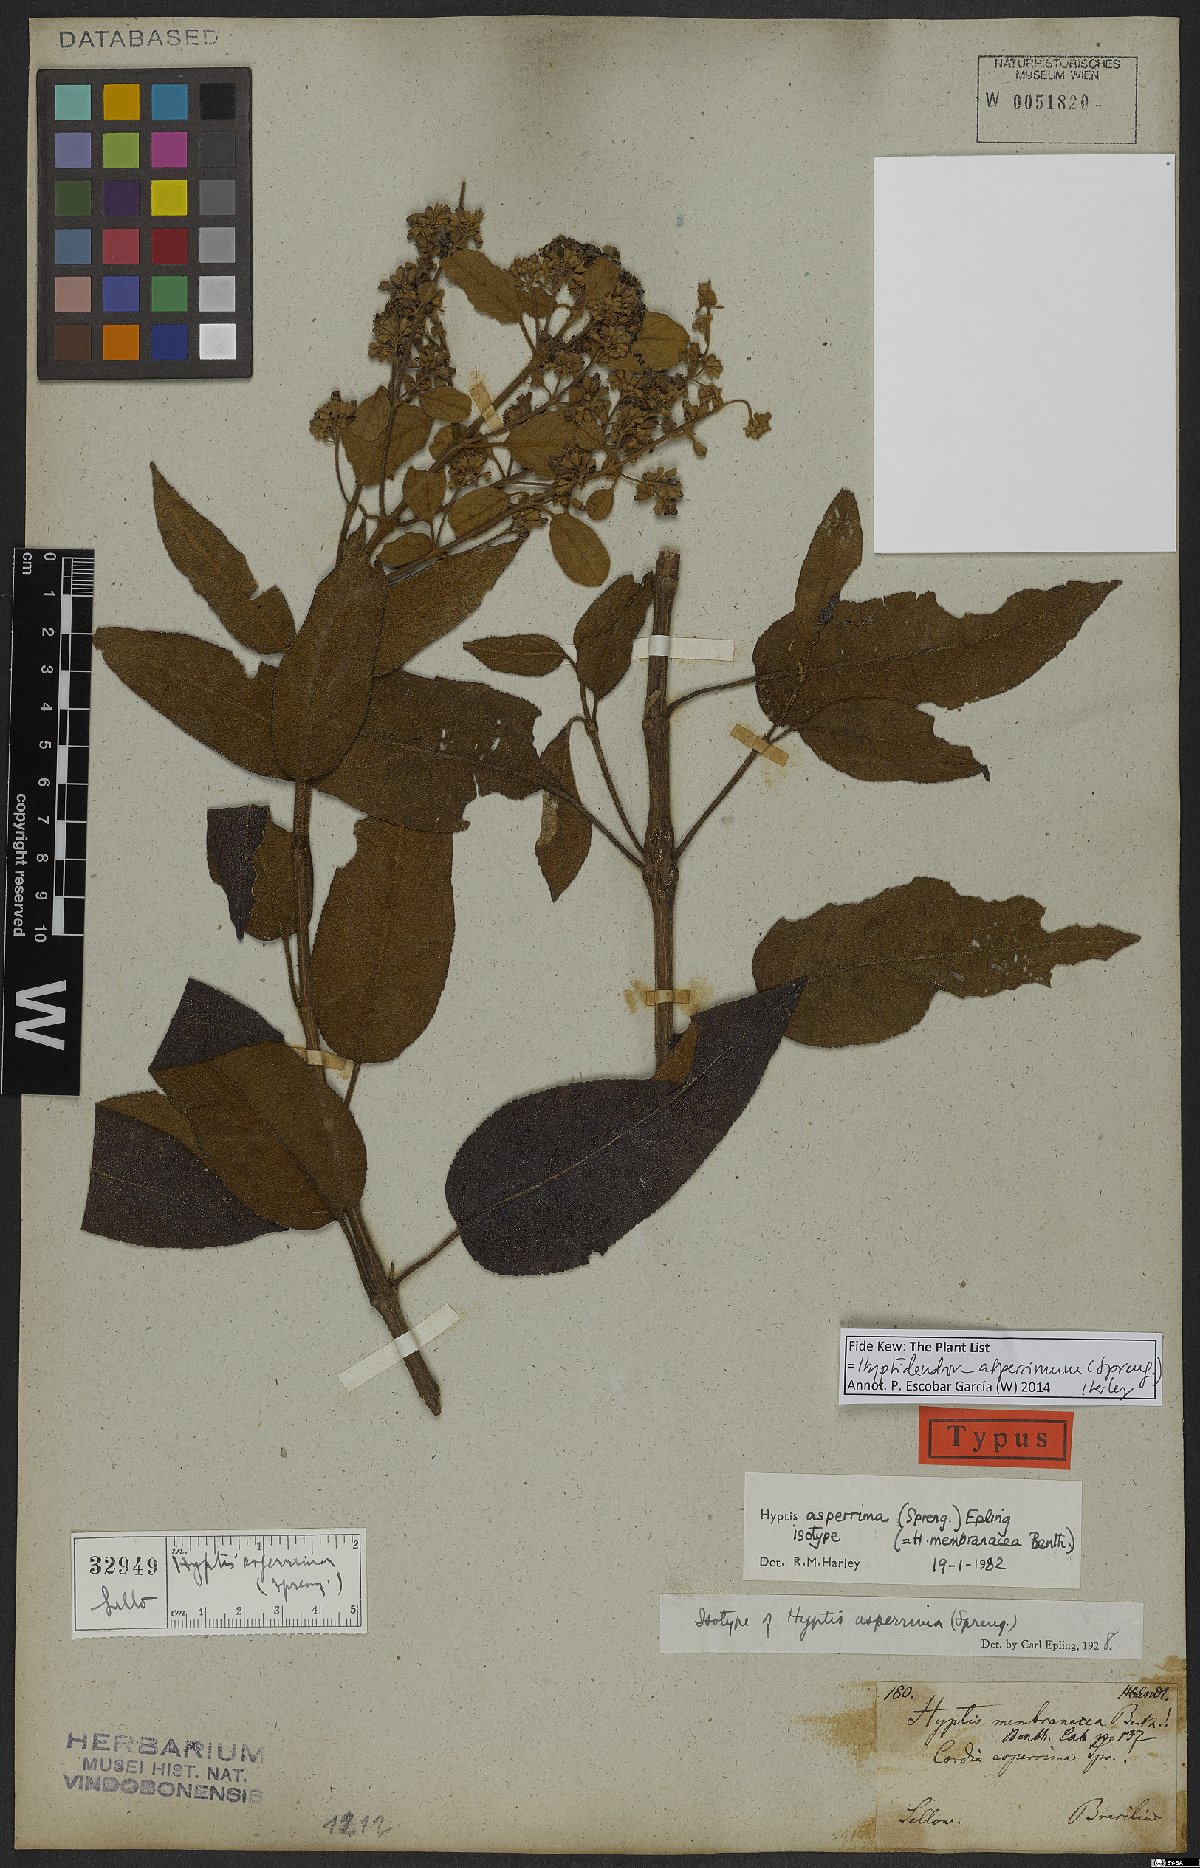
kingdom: Plantae
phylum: Tracheophyta
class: Magnoliopsida
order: Lamiales
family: Lamiaceae
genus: Hyptidendron
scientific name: Hyptidendron asperrimum
